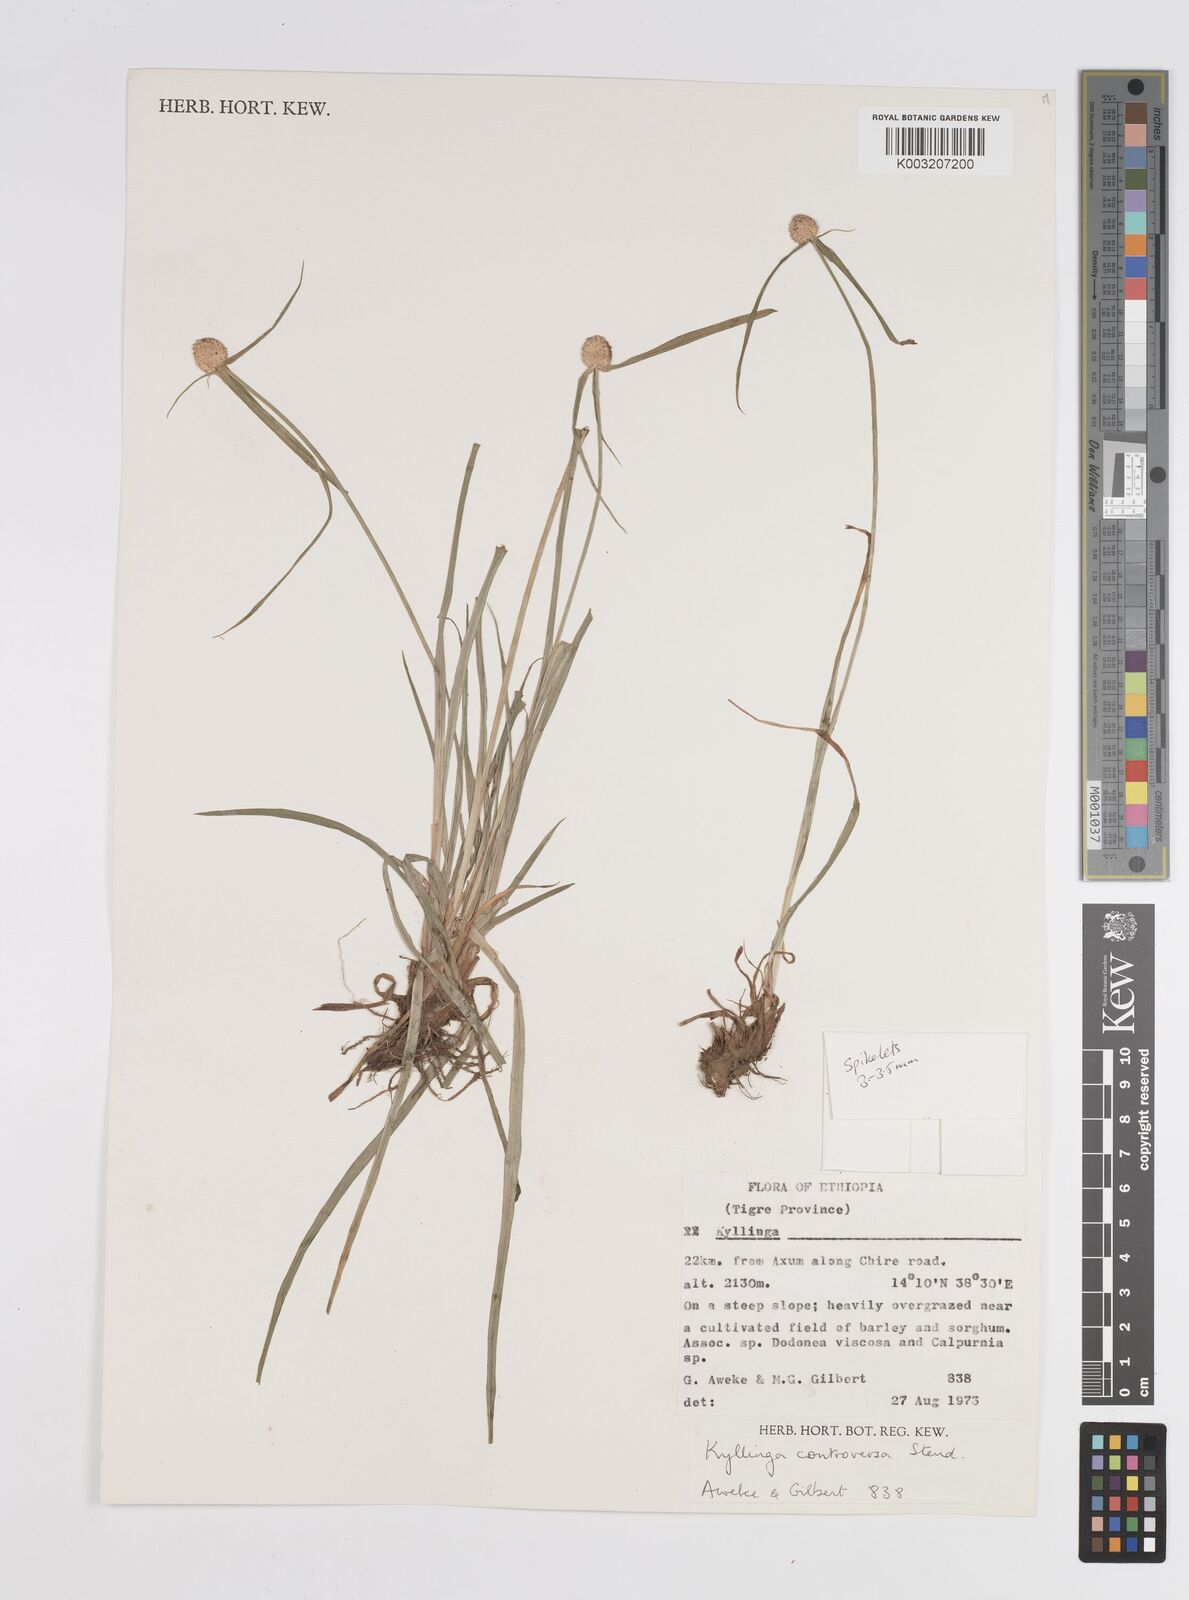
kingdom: Plantae
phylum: Tracheophyta
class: Liliopsida
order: Poales
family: Cyperaceae
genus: Cyperus
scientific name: Cyperus controversus
